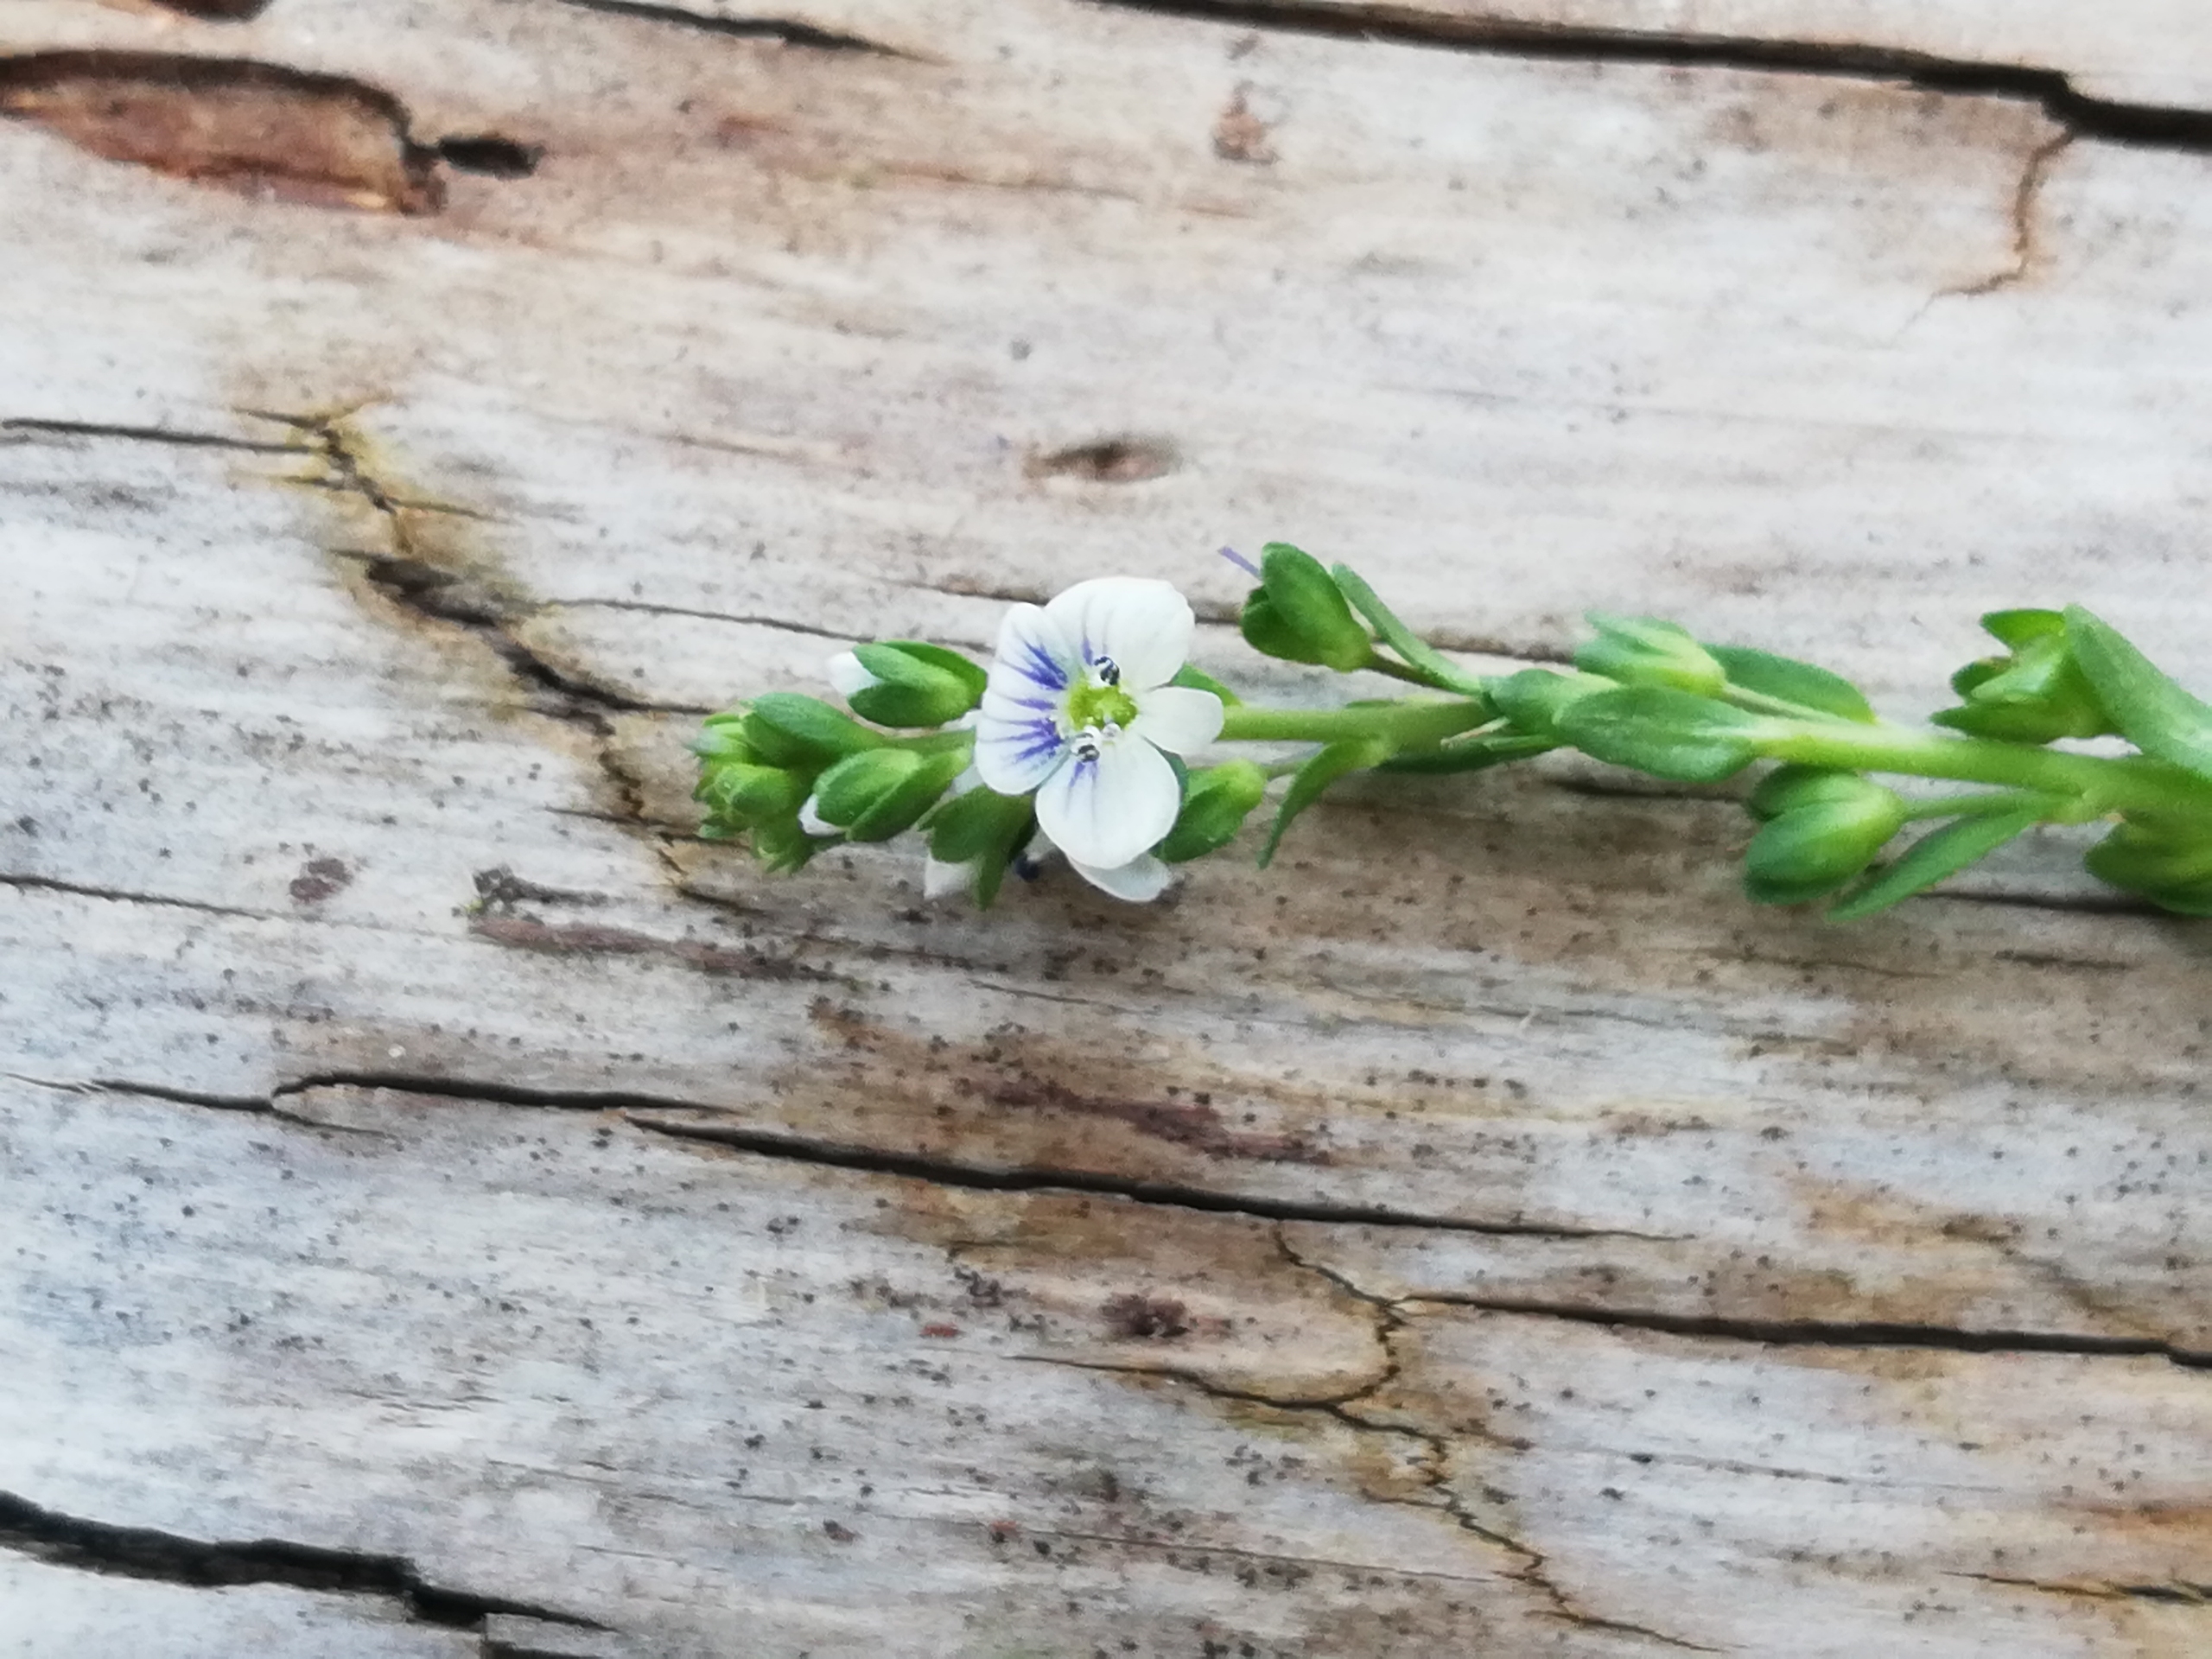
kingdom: Plantae
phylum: Tracheophyta
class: Magnoliopsida
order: Lamiales
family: Plantaginaceae
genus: Veronica
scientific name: Veronica serpyllifolia
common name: Glat ærenpris
